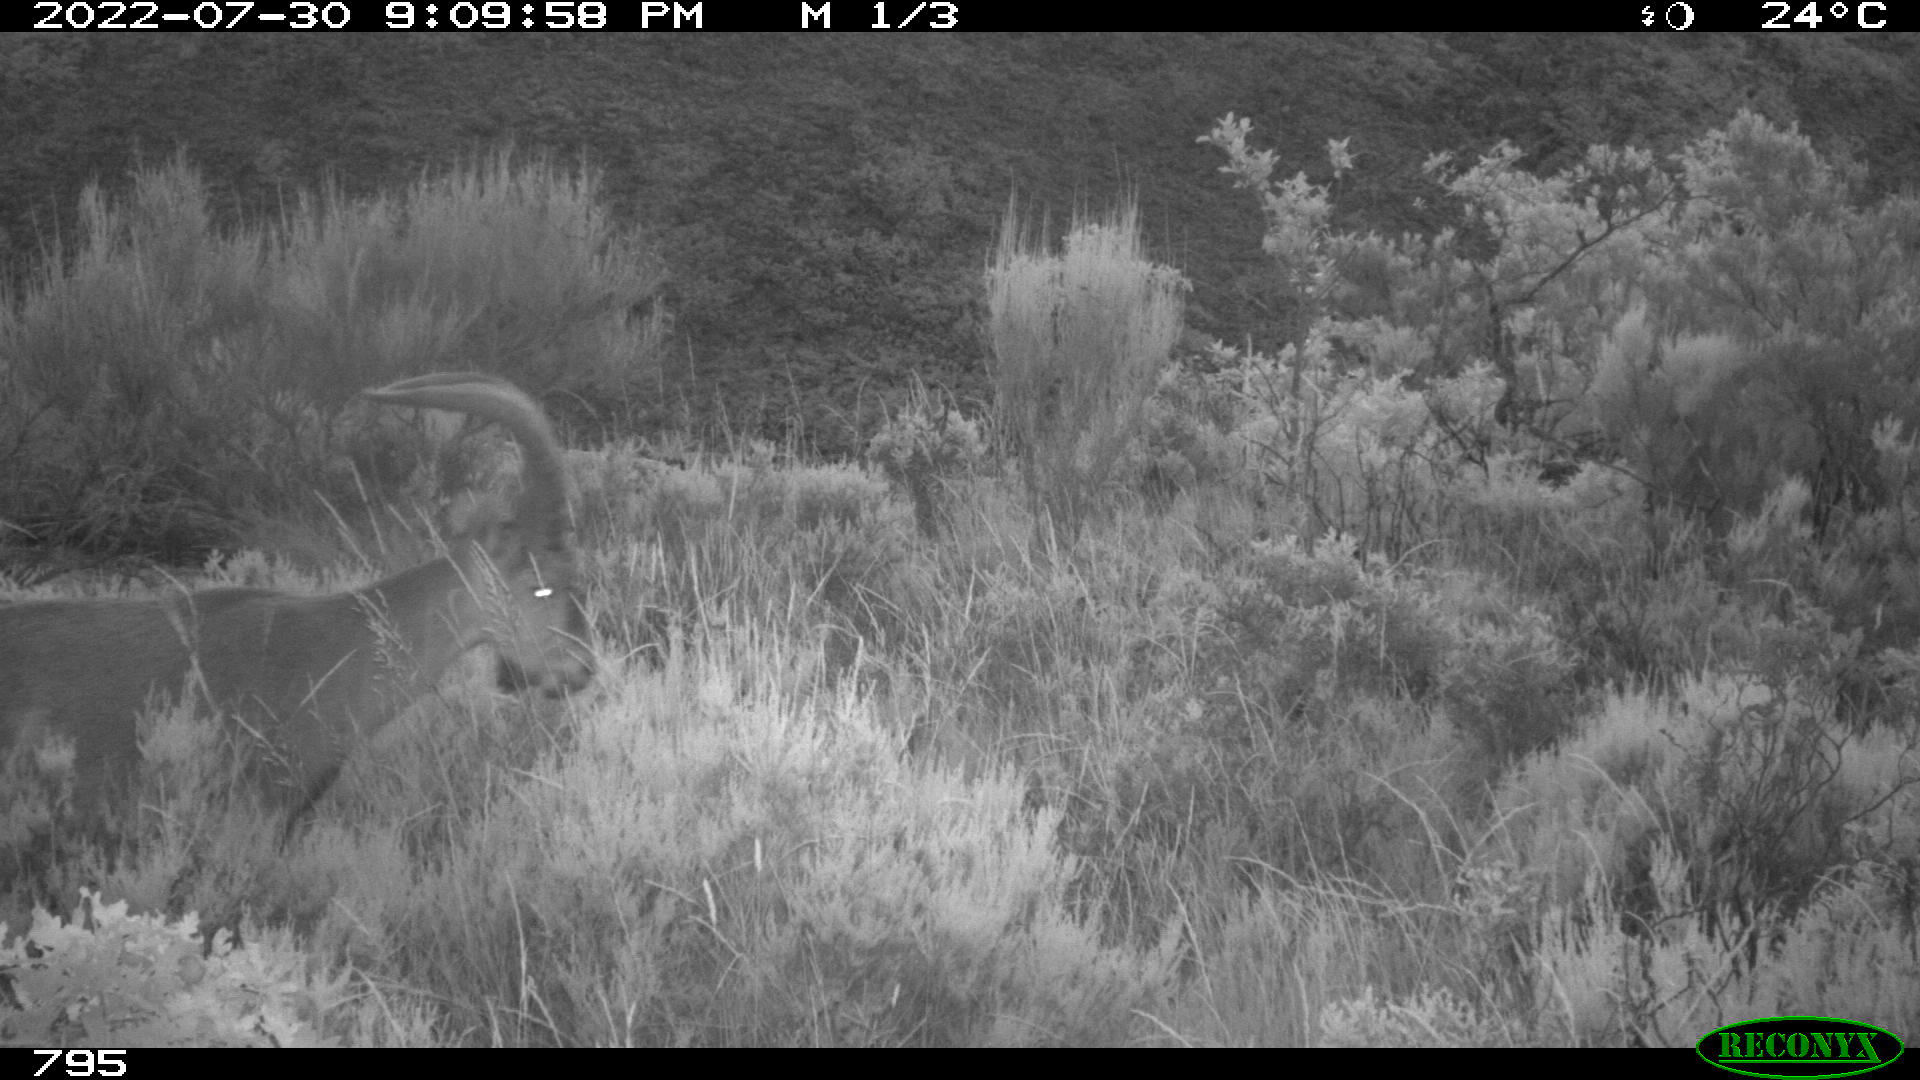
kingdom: Animalia
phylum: Chordata
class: Mammalia
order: Artiodactyla
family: Bovidae
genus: Capra
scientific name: Capra pyrenaica
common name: Spanish ibex
